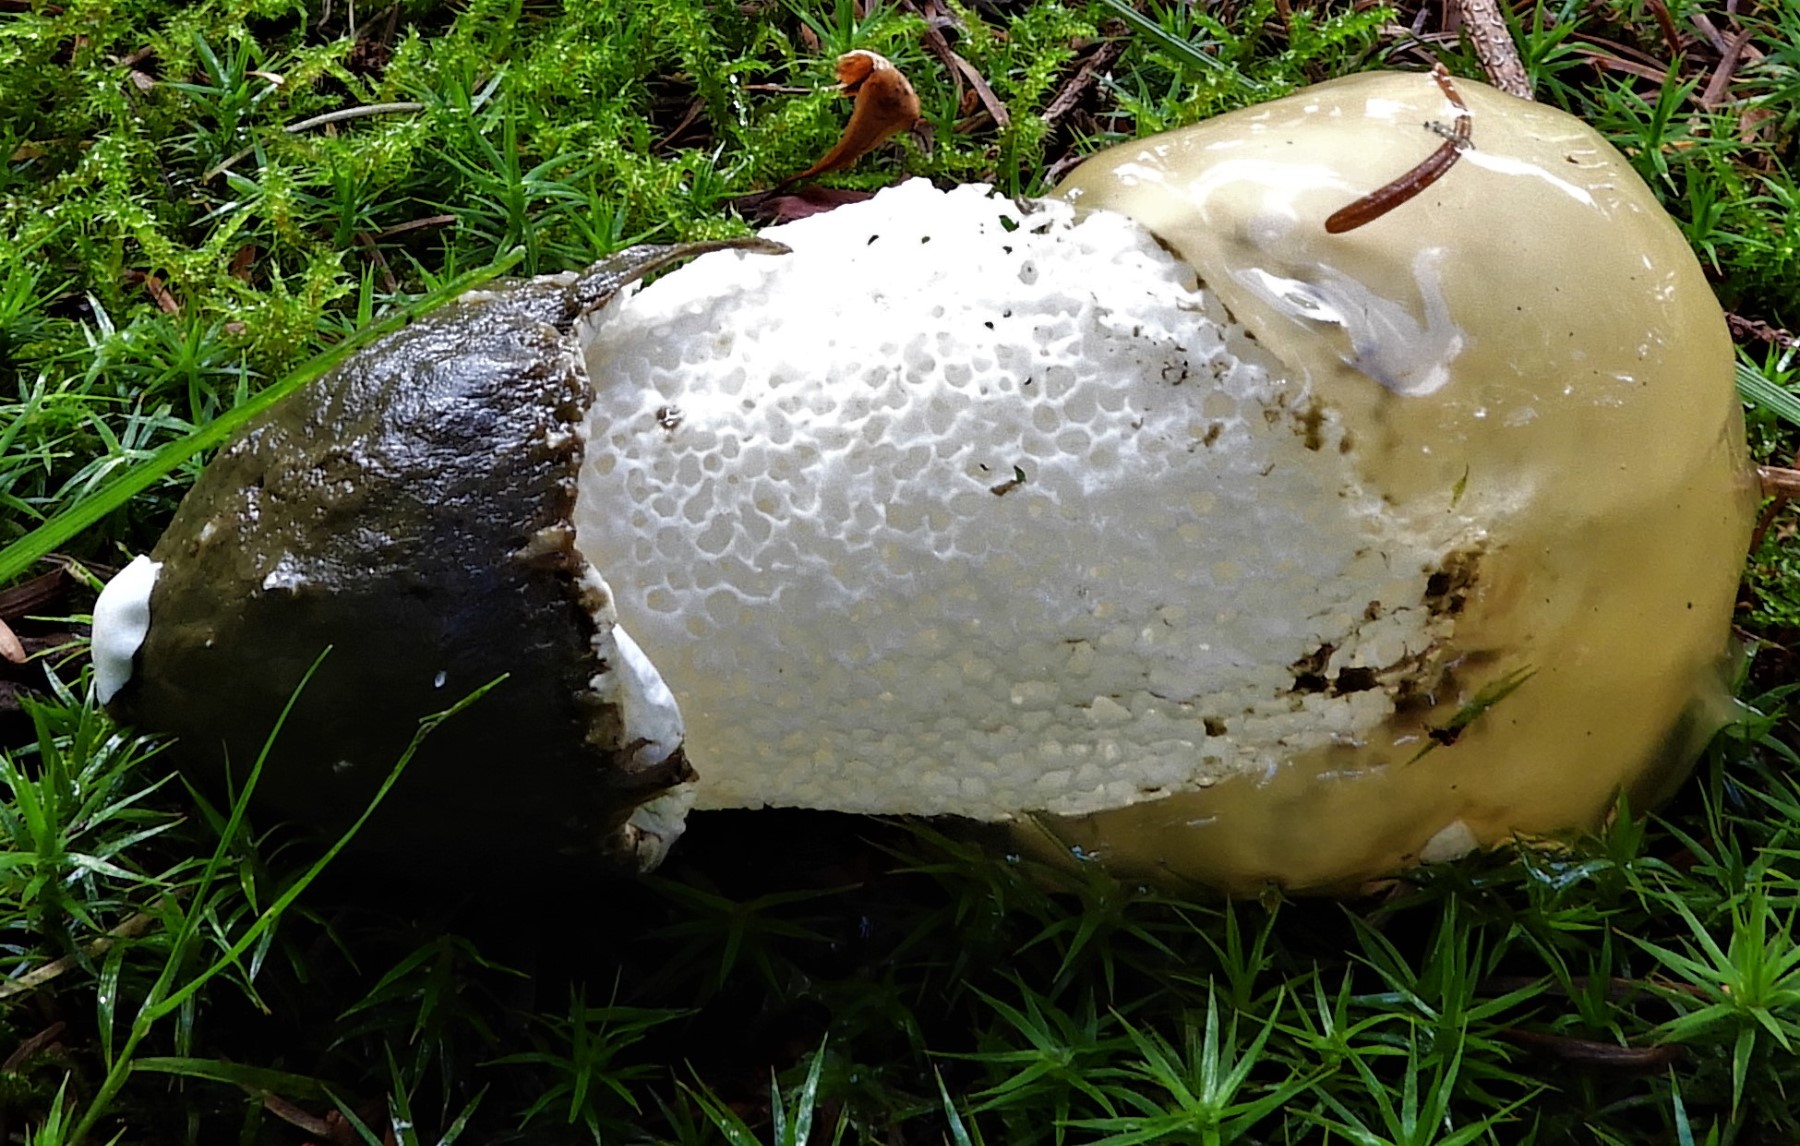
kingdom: Fungi
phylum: Basidiomycota
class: Agaricomycetes
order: Phallales
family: Phallaceae
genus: Phallus
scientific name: Phallus impudicus
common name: almindelig stinksvamp
